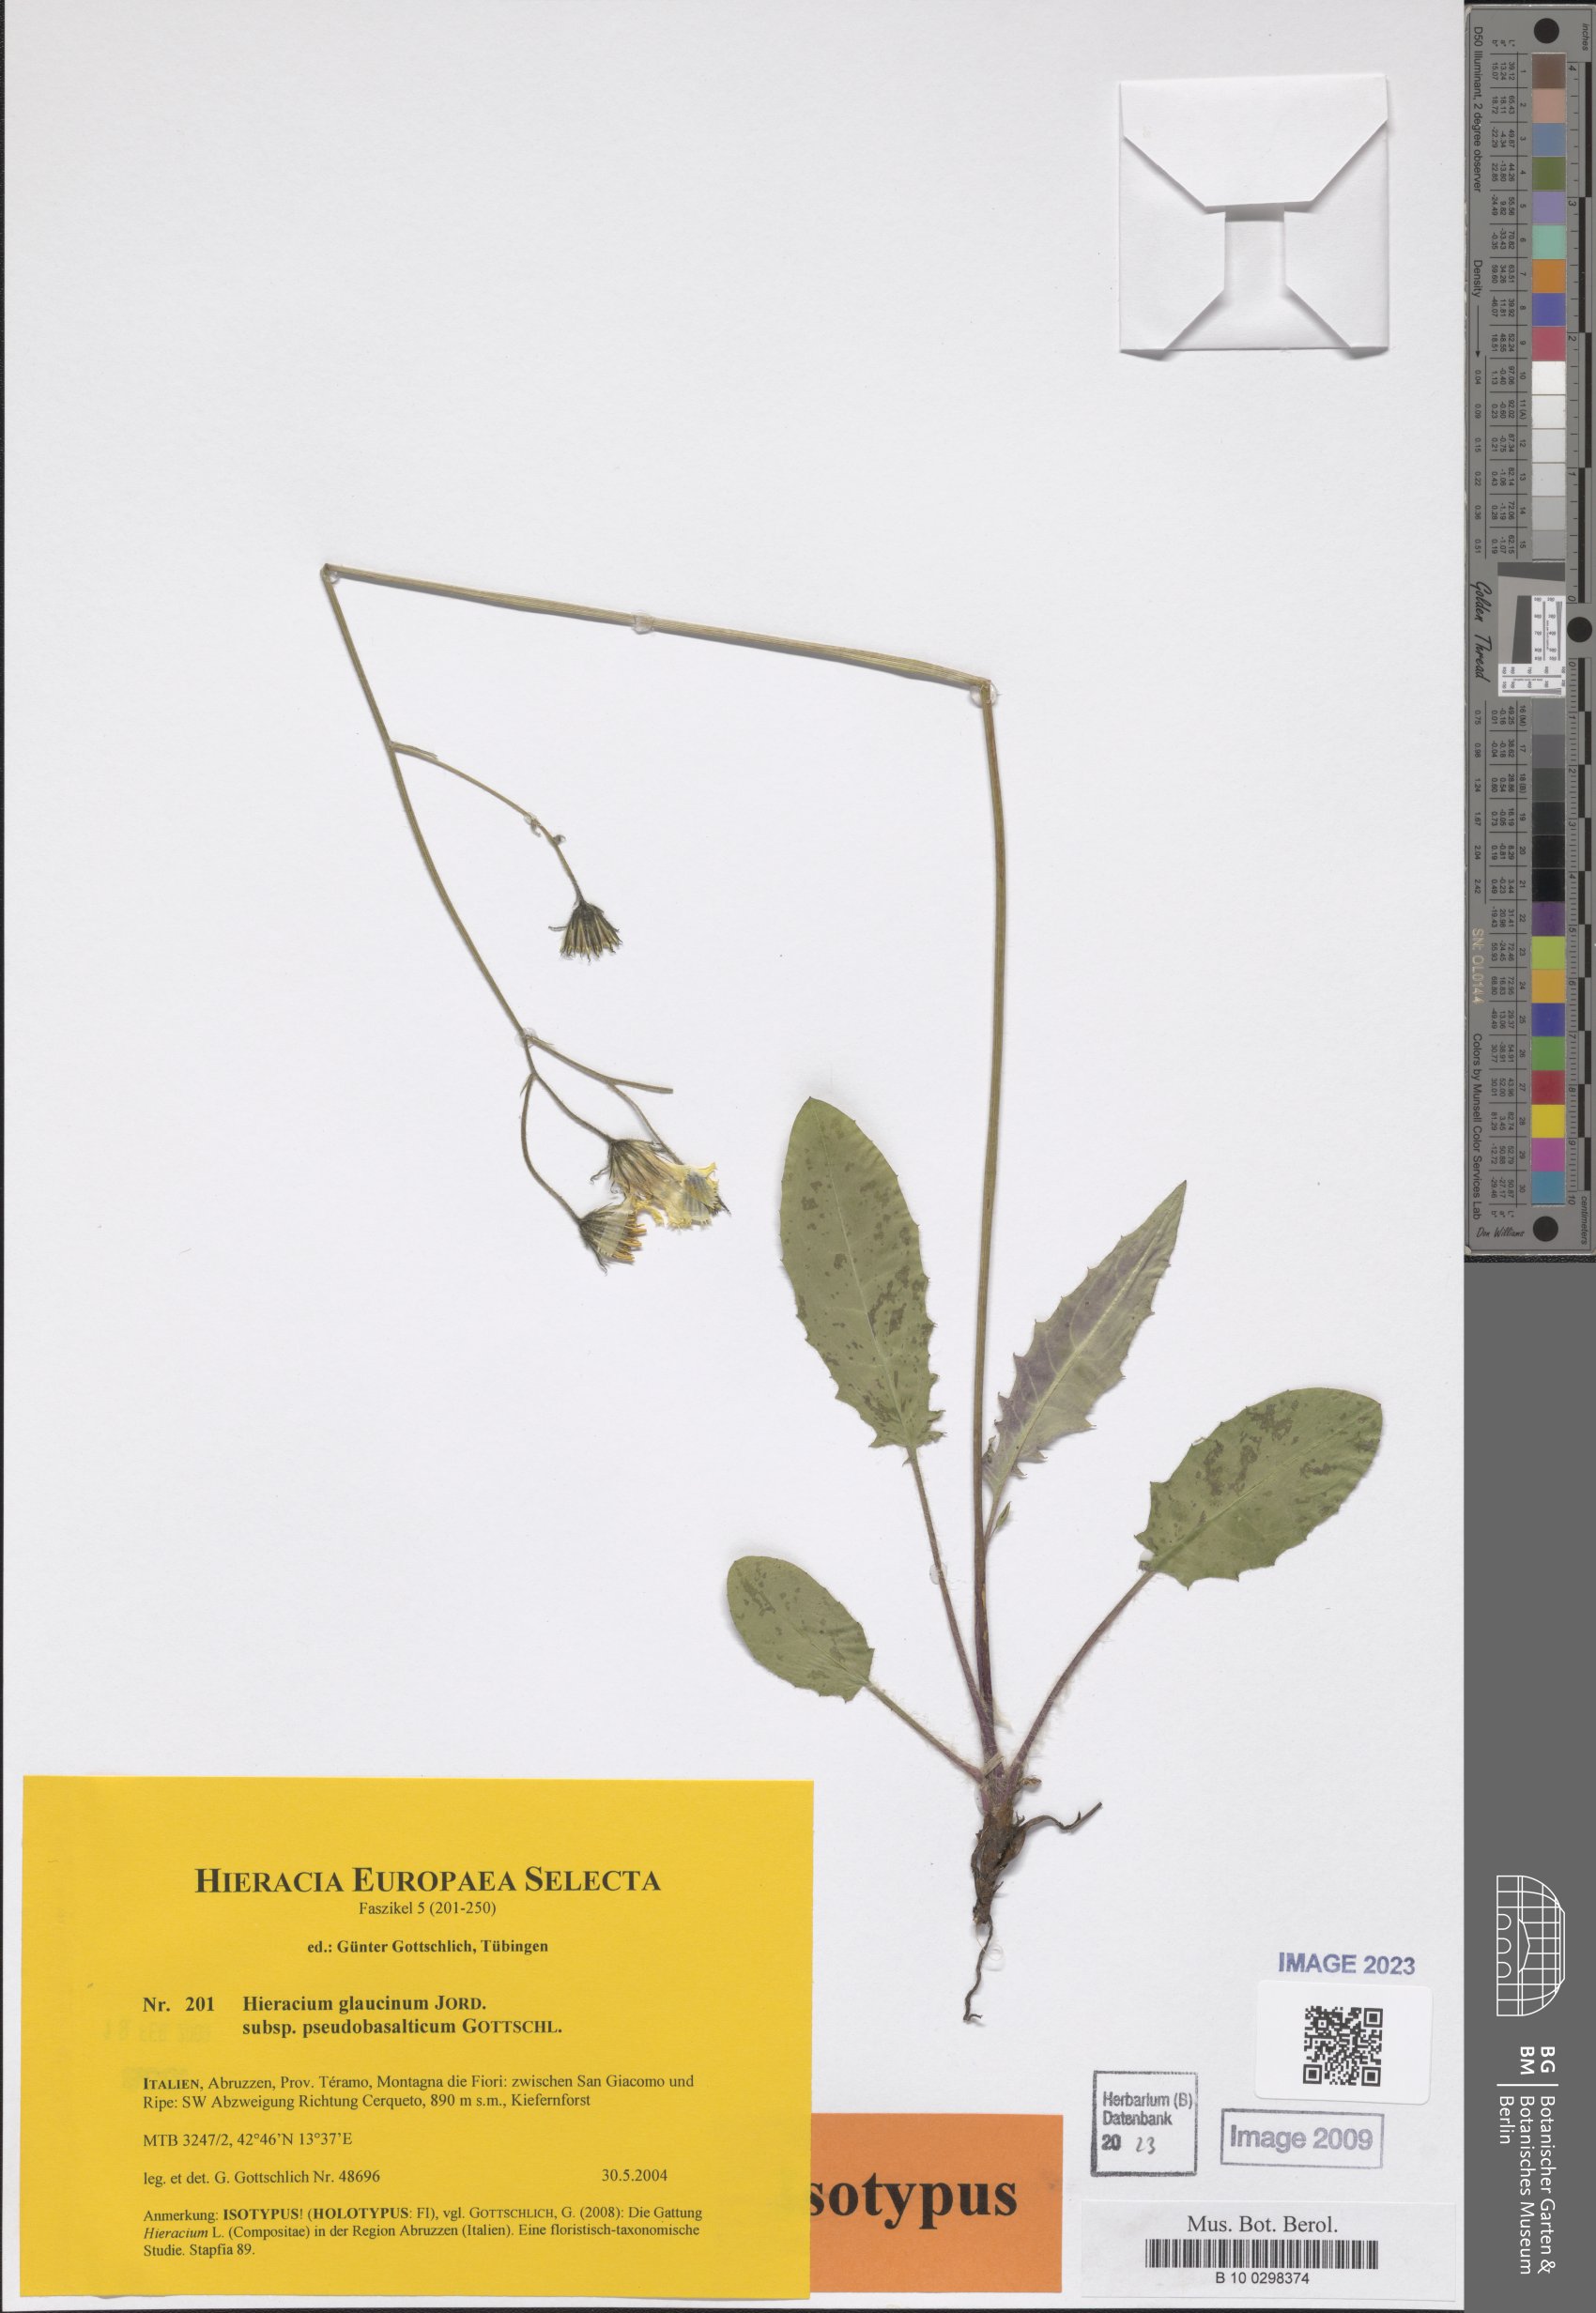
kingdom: Plantae
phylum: Tracheophyta
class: Magnoliopsida
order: Asterales
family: Asteraceae
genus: Hieracium
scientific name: Hieracium glaucinum
